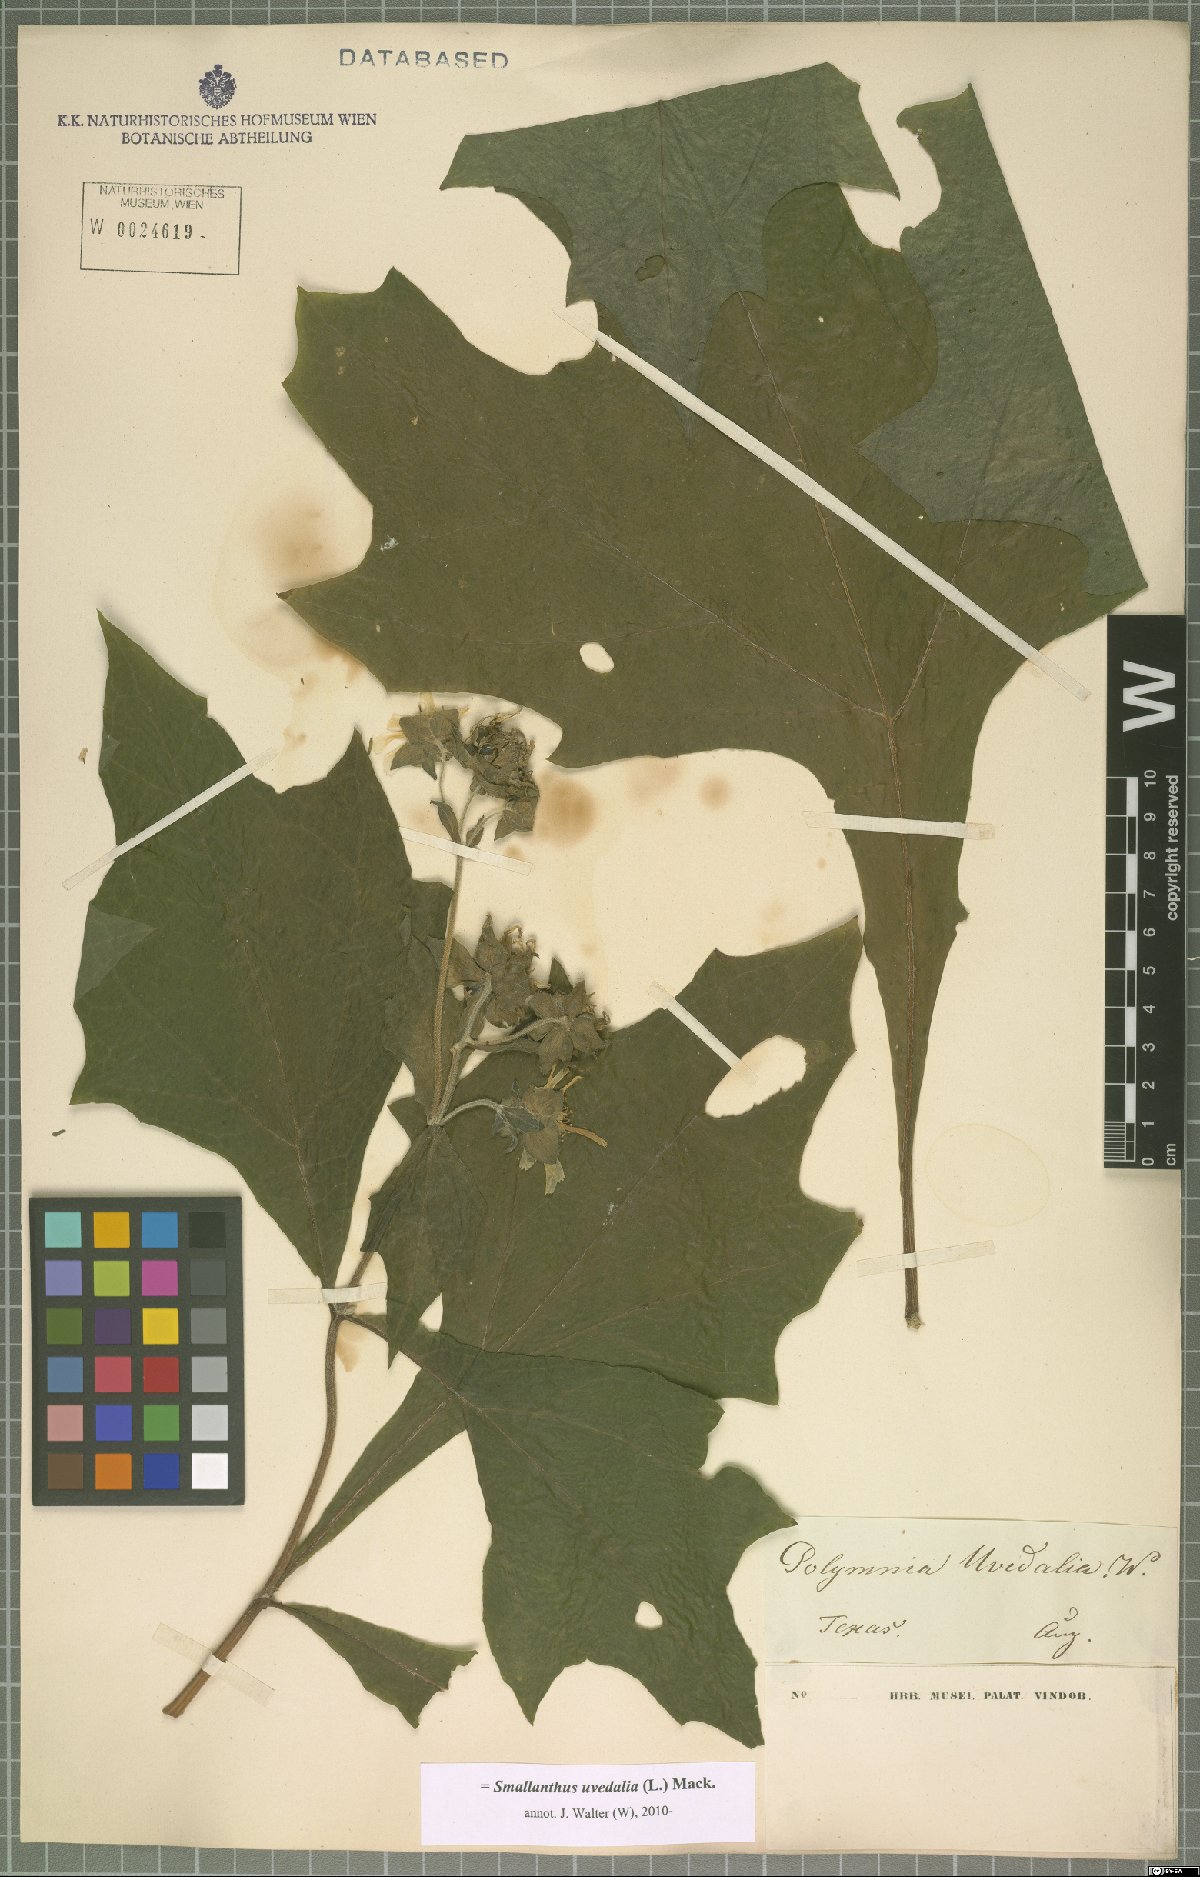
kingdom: Plantae
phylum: Tracheophyta
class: Magnoliopsida
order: Asterales
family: Asteraceae
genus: Smallanthus
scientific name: Smallanthus uvedalia
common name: Bear's-foot
